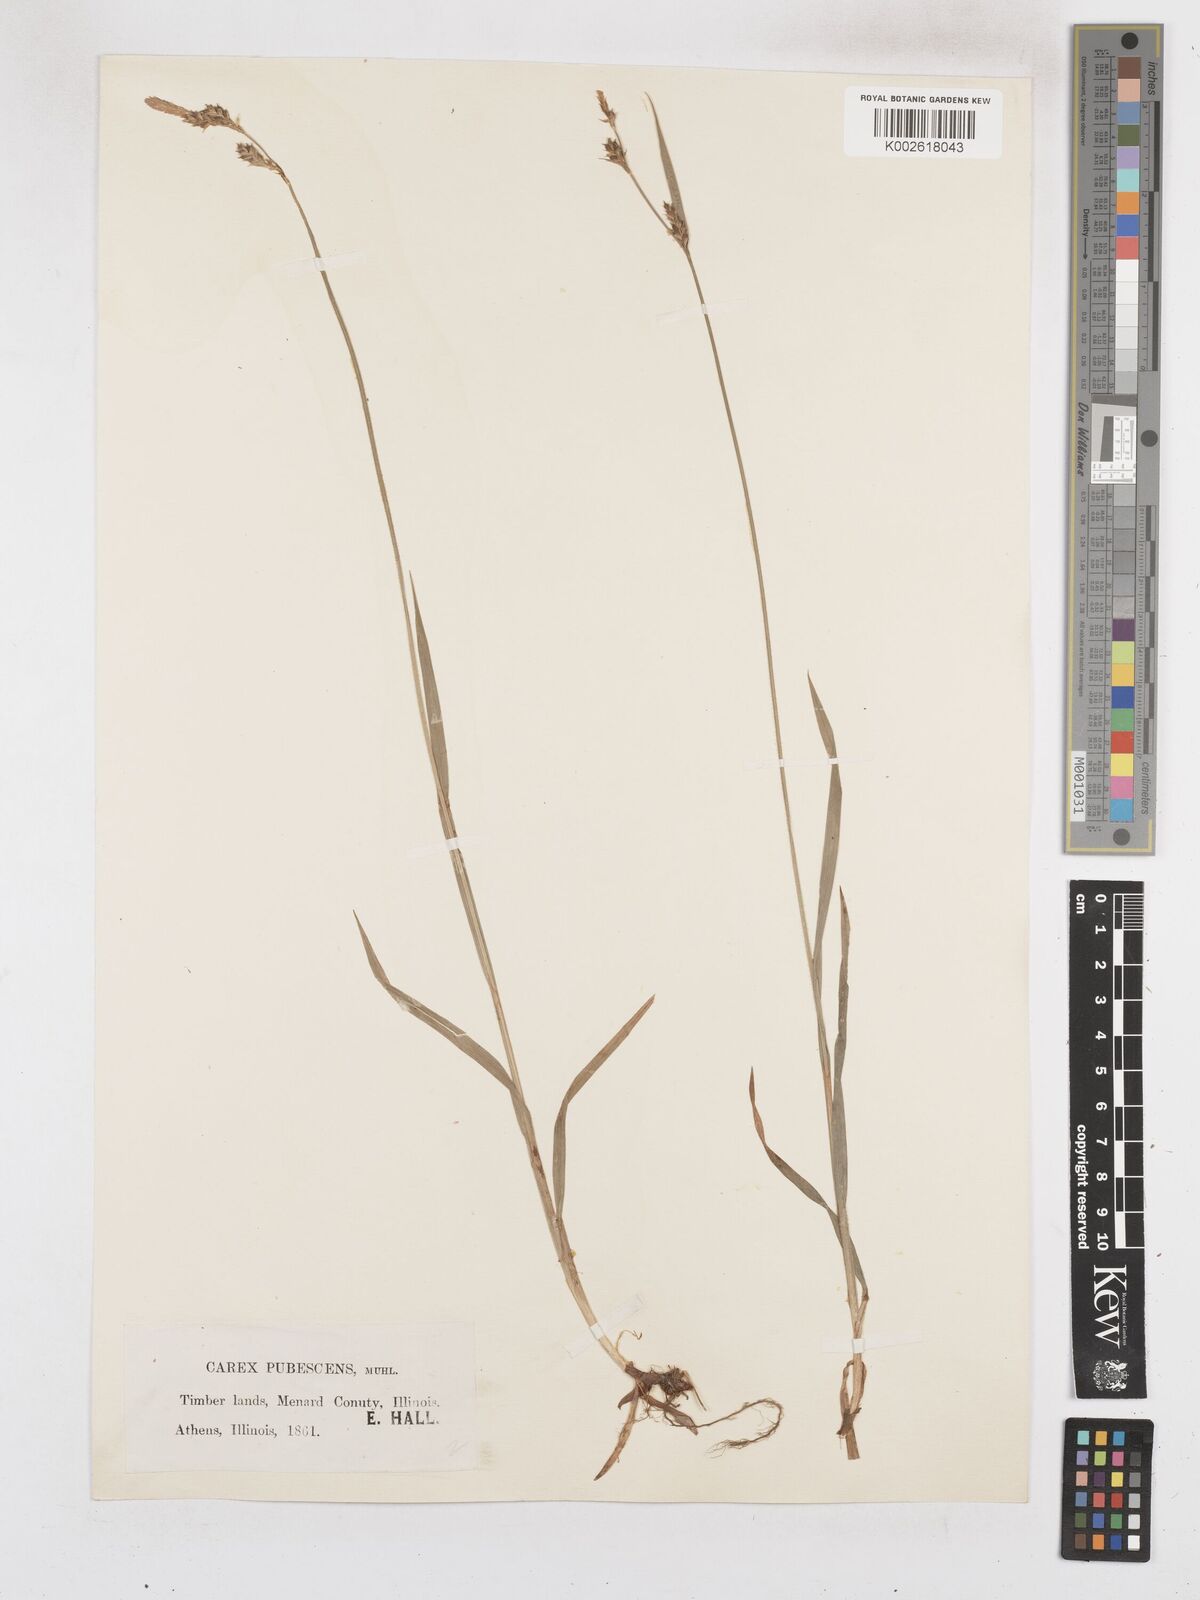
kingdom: Plantae
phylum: Tracheophyta
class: Liliopsida
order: Poales
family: Cyperaceae
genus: Carex
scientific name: Carex hirtifolia
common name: Hairy sedge
